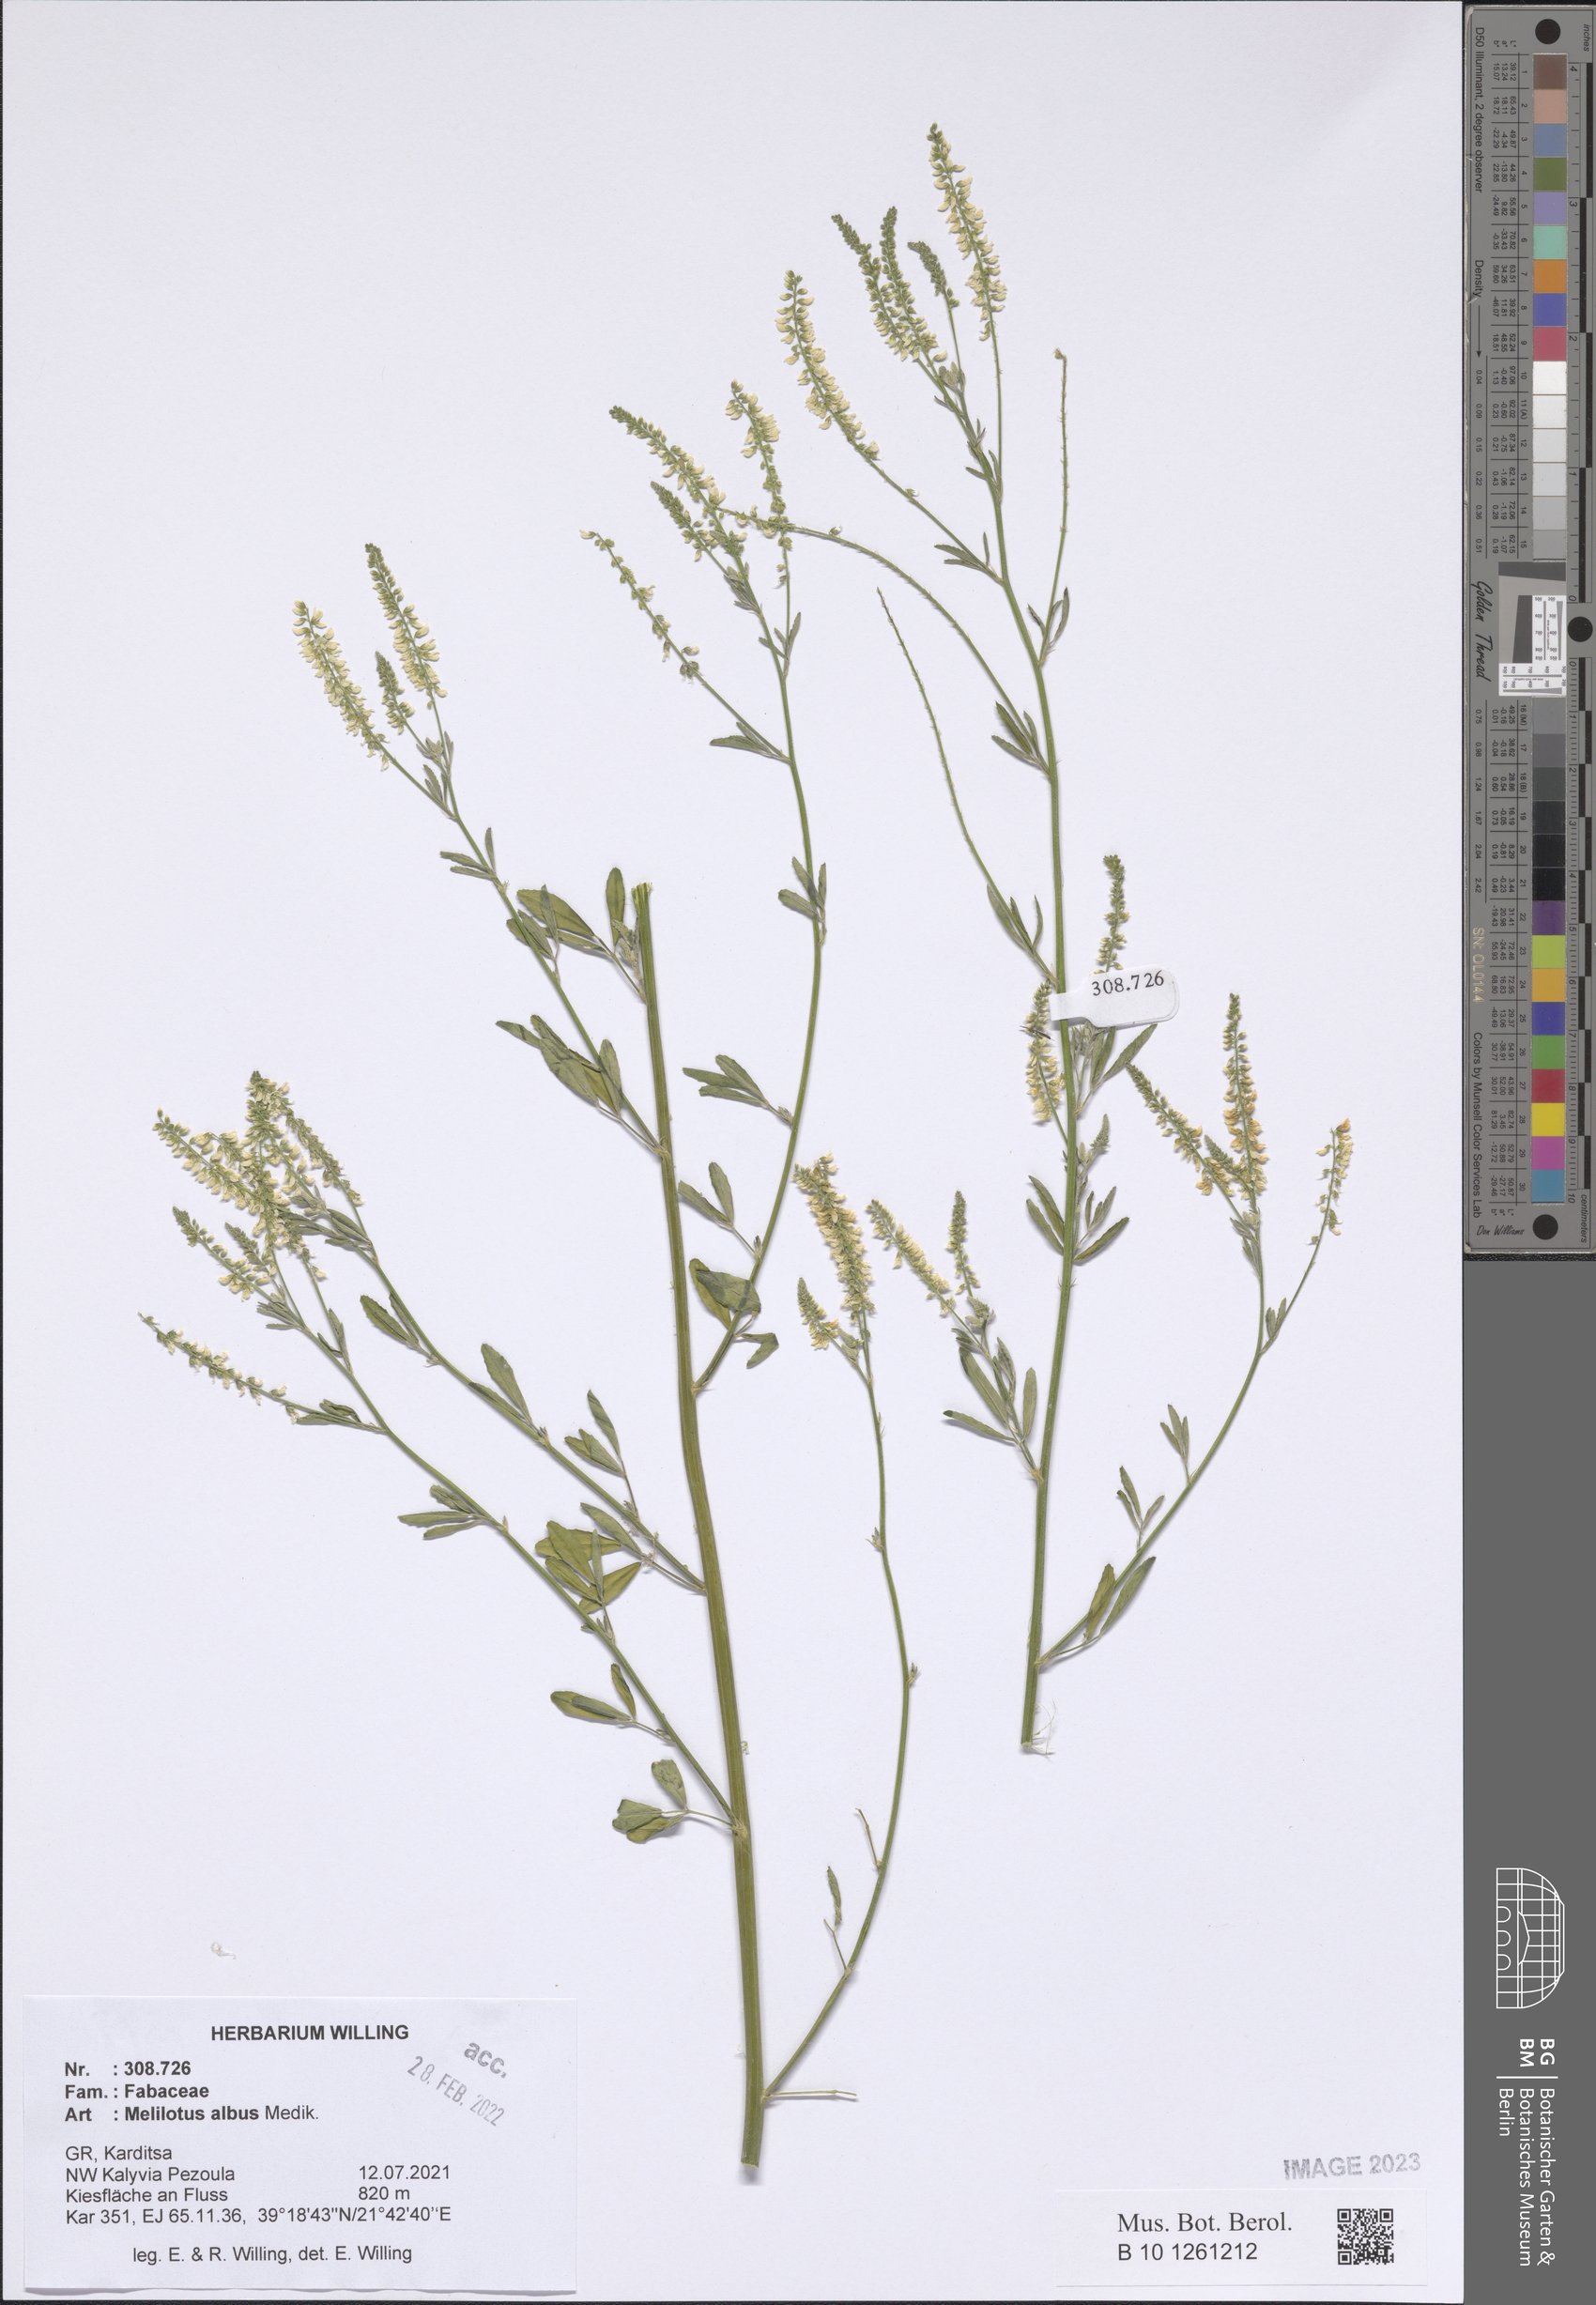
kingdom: Plantae
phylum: Tracheophyta
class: Magnoliopsida
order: Fabales
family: Fabaceae
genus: Melilotus
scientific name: Melilotus albus
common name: White melilot
